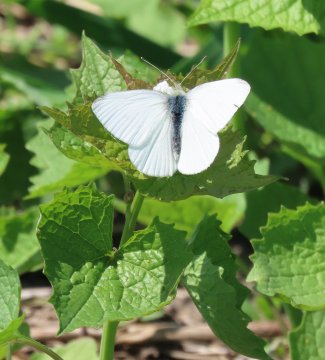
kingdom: Animalia
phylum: Arthropoda
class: Insecta
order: Lepidoptera
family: Pieridae
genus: Pieris
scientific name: Pieris rapae
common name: Cabbage White
